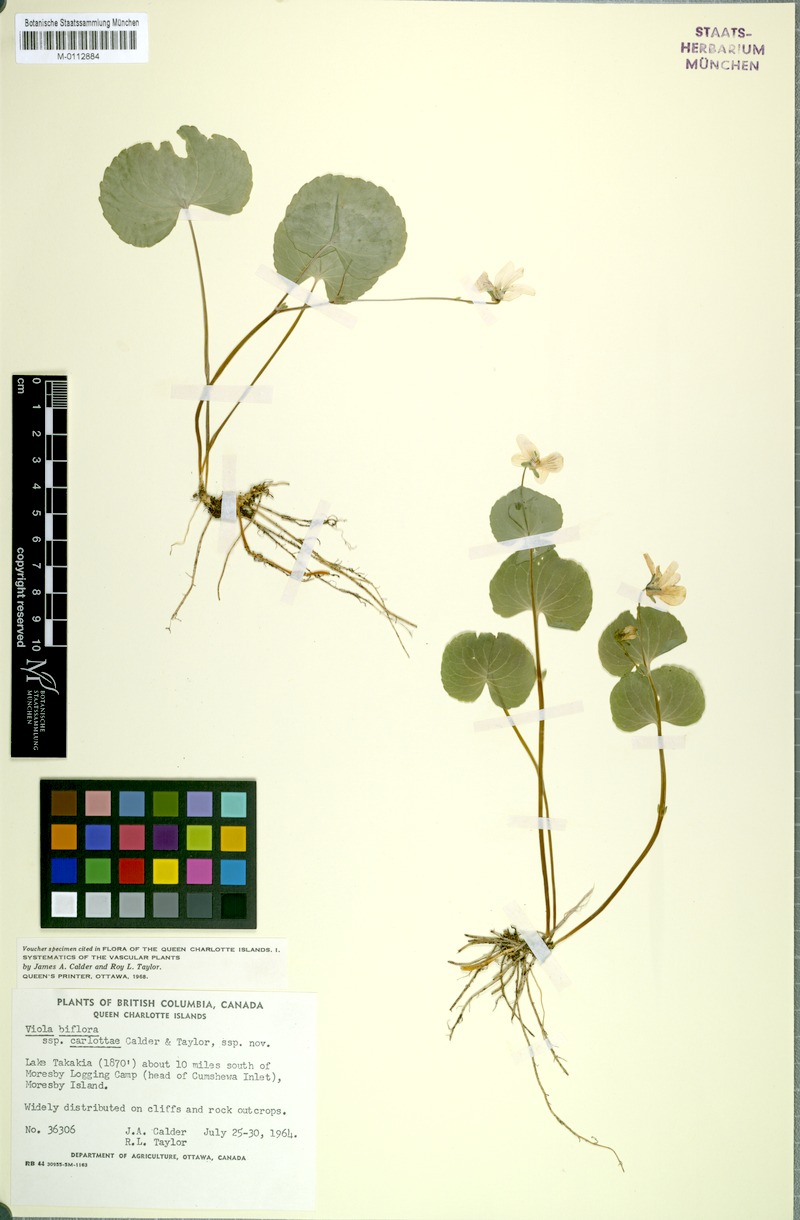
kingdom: Plantae
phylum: Tracheophyta
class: Magnoliopsida
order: Malpighiales
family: Violaceae
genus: Viola
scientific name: Viola crassa
